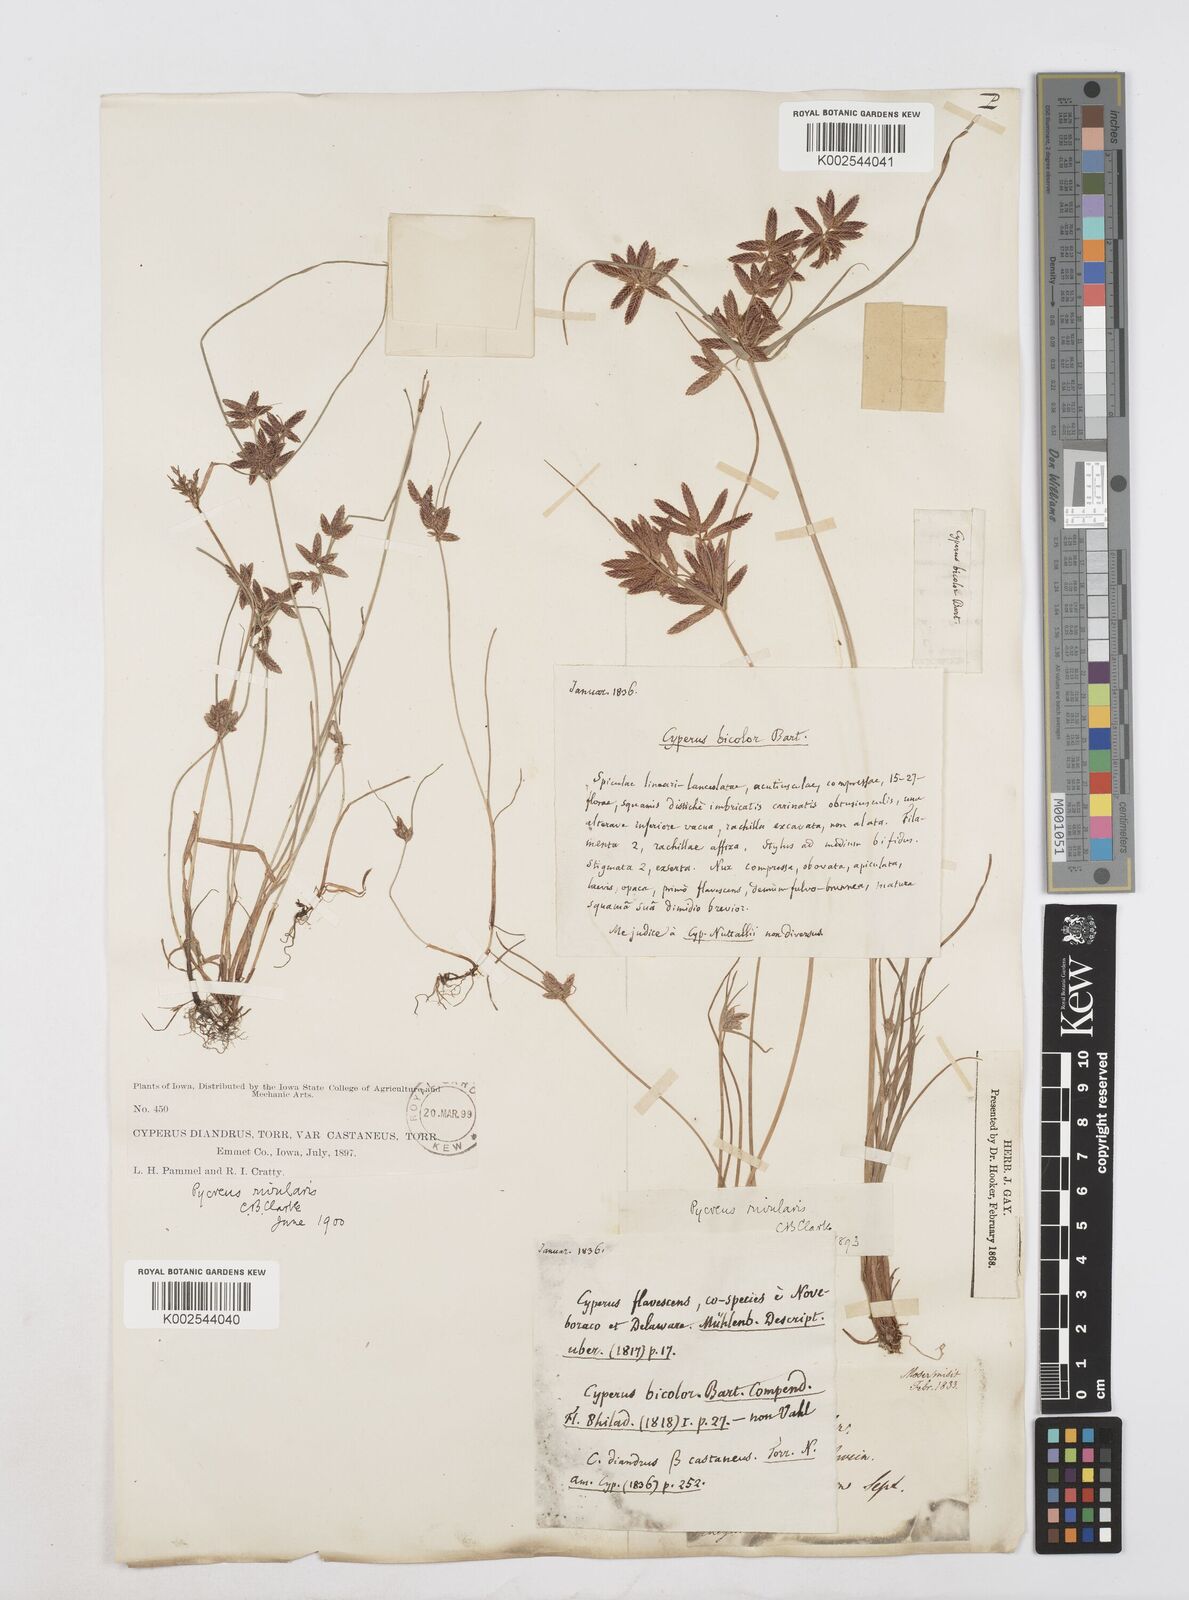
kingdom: Plantae
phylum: Tracheophyta
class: Liliopsida
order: Poales
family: Cyperaceae
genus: Cyperus
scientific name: Cyperus bipartitus
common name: Brook flatsedge
